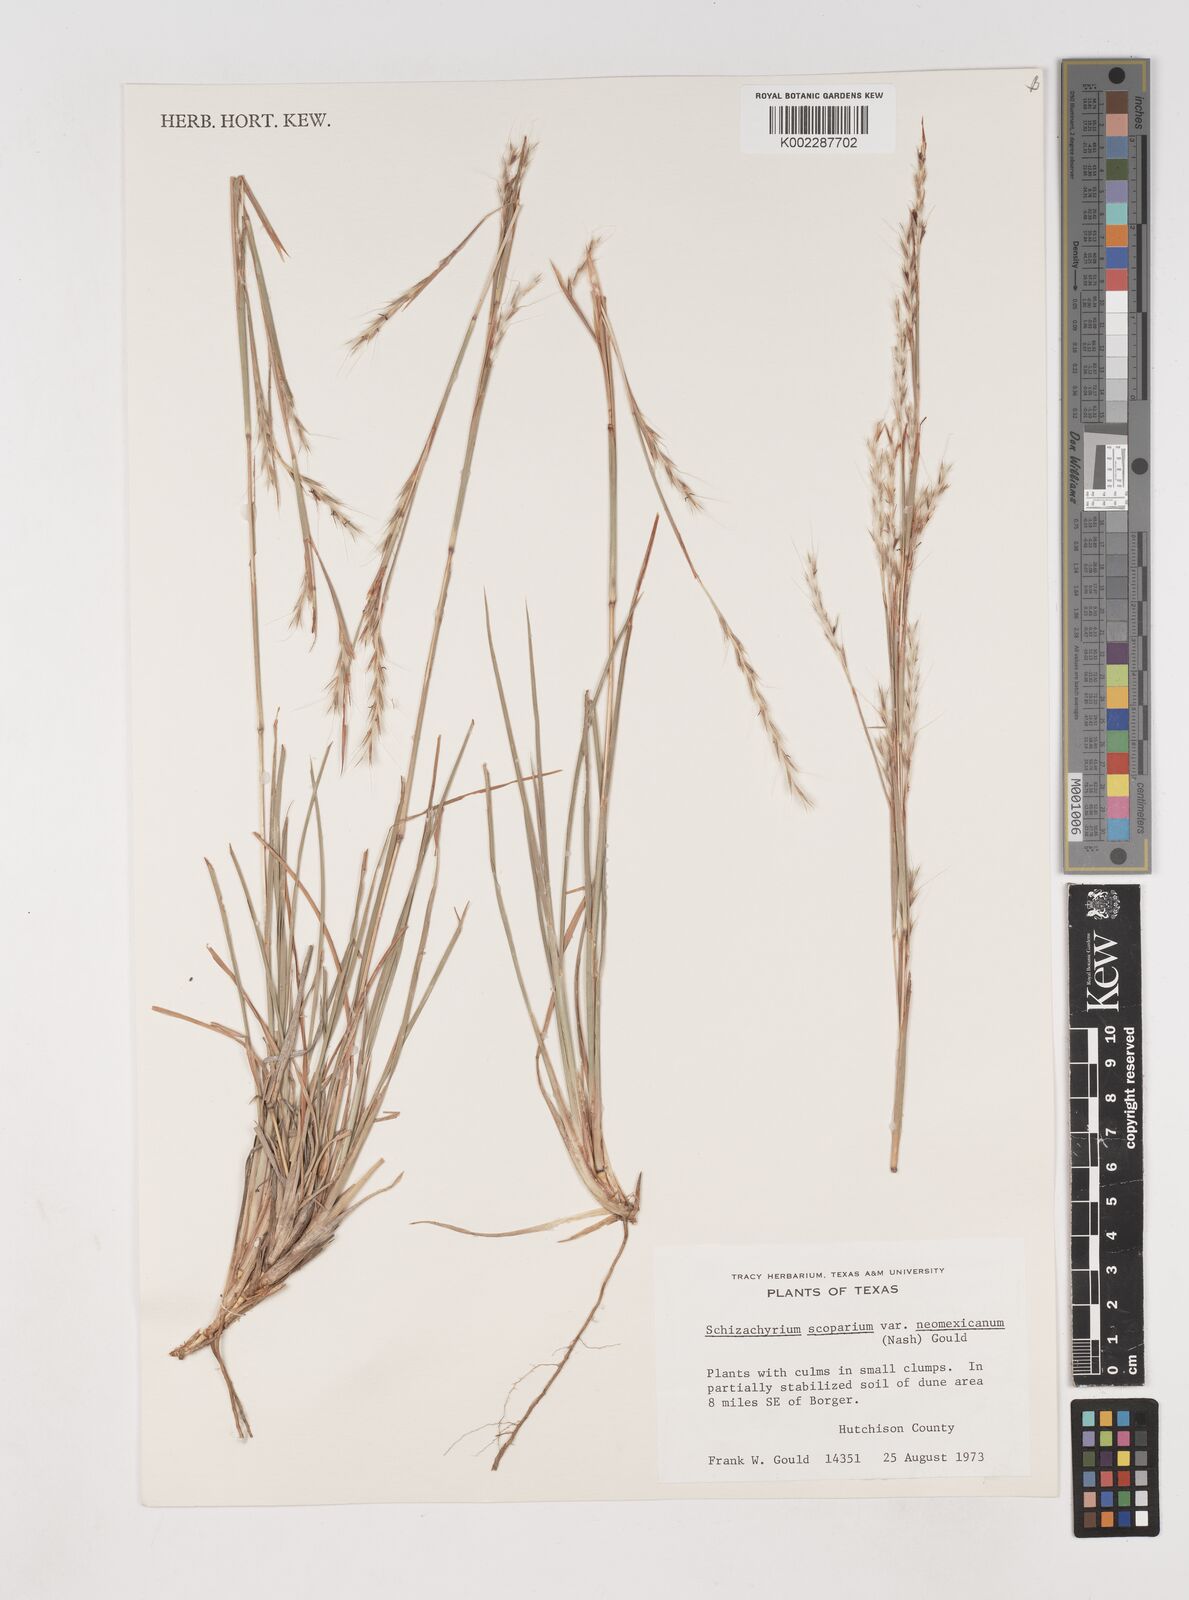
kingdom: Plantae
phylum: Tracheophyta
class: Liliopsida
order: Poales
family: Poaceae
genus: Schizachyrium
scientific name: Schizachyrium scoparium
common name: Little bluestem
